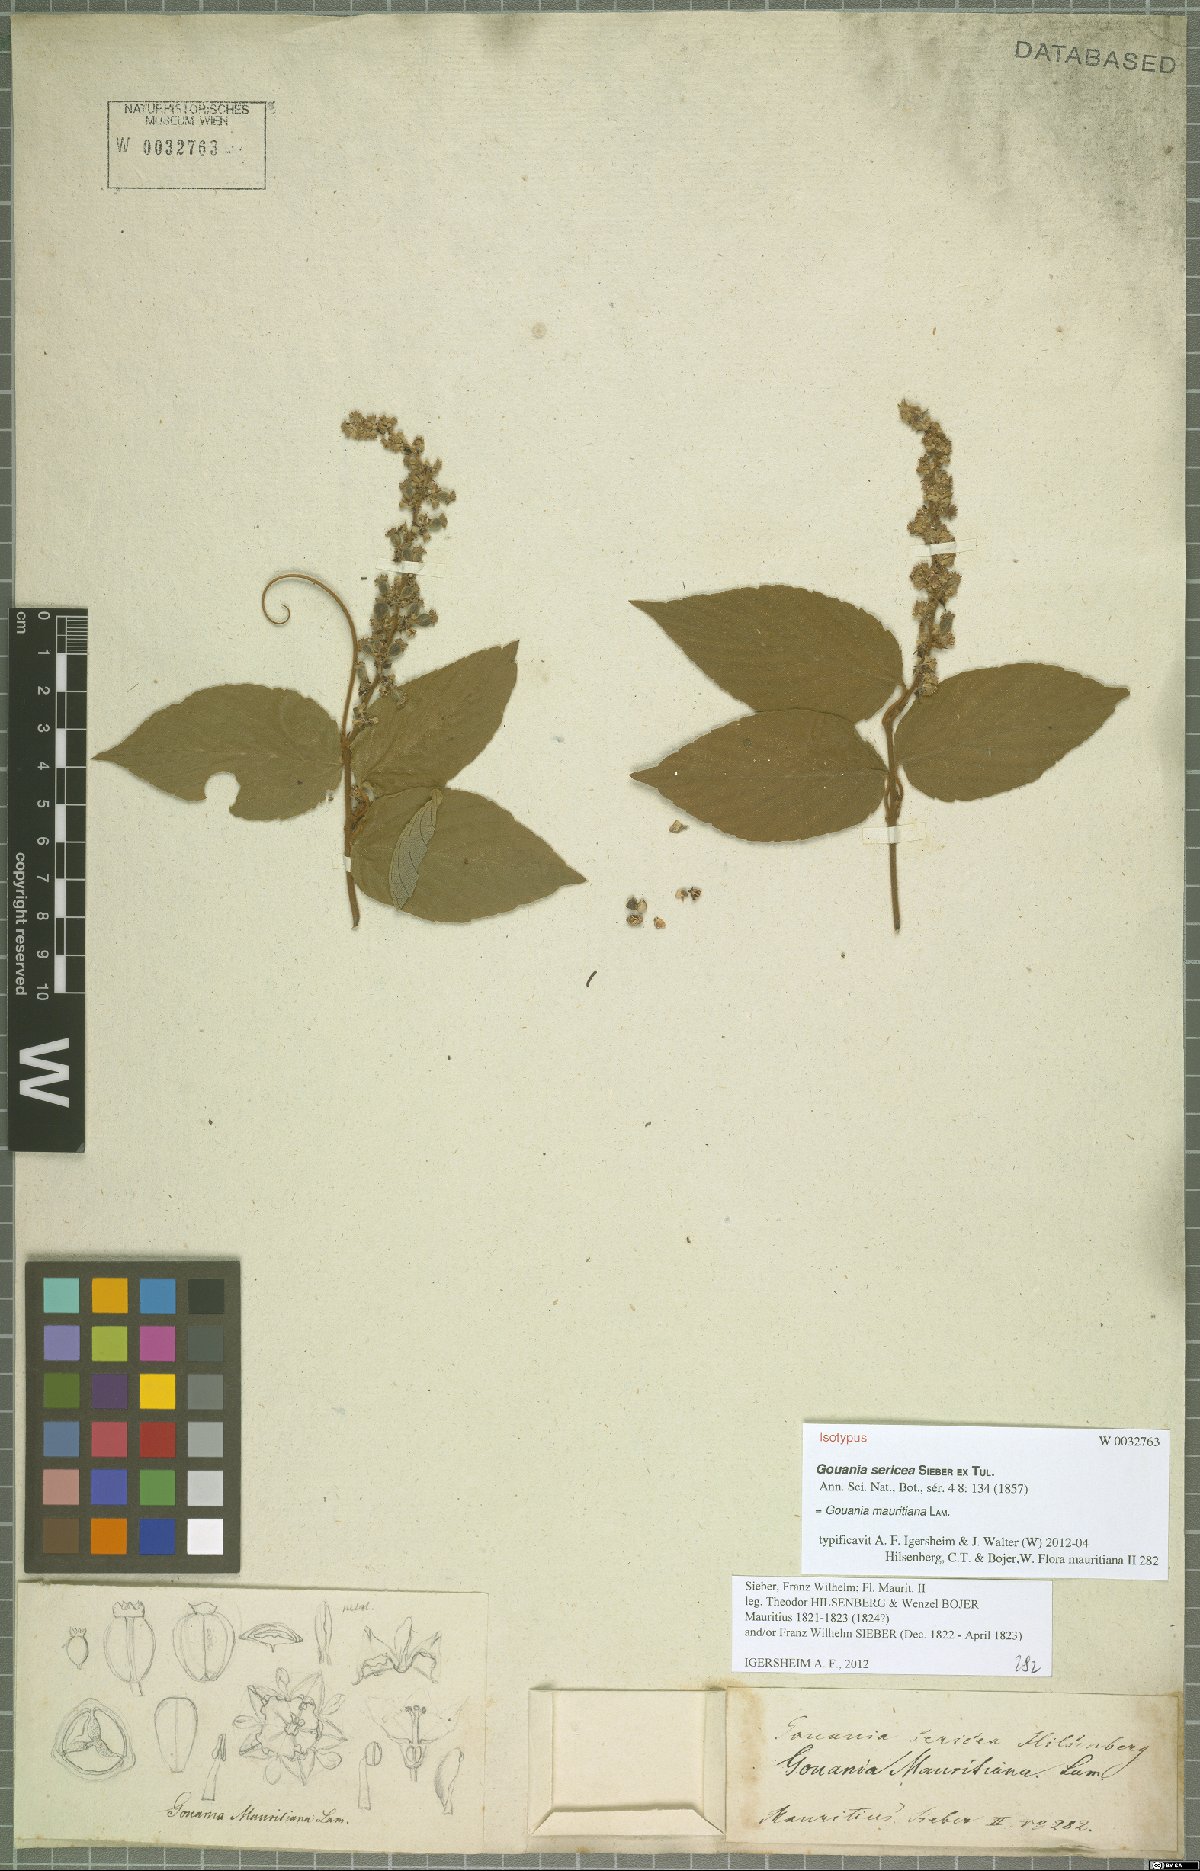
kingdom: Plantae
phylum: Tracheophyta
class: Magnoliopsida
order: Rosales
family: Rhamnaceae
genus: Gouania
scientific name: Gouania mauritiana
